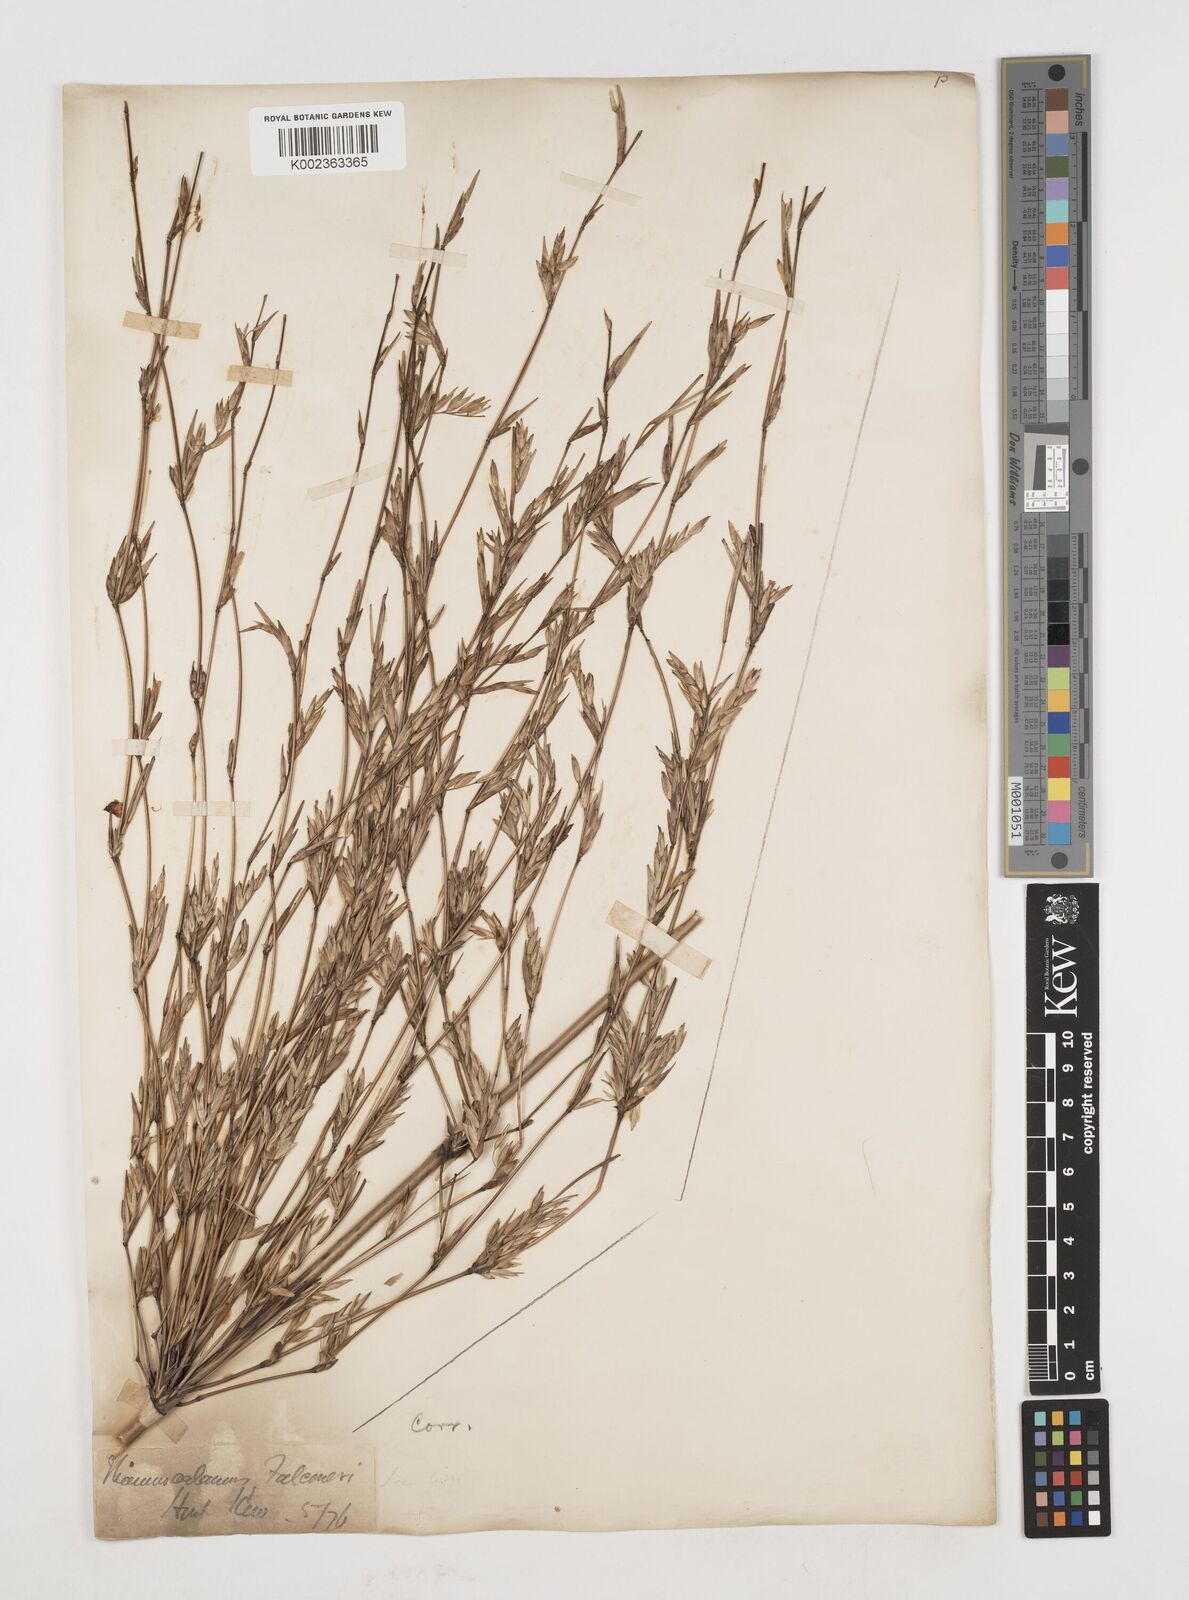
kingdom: Plantae
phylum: Tracheophyta
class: Liliopsida
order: Poales
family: Poaceae
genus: Himalayacalamus
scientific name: Himalayacalamus falconeri
